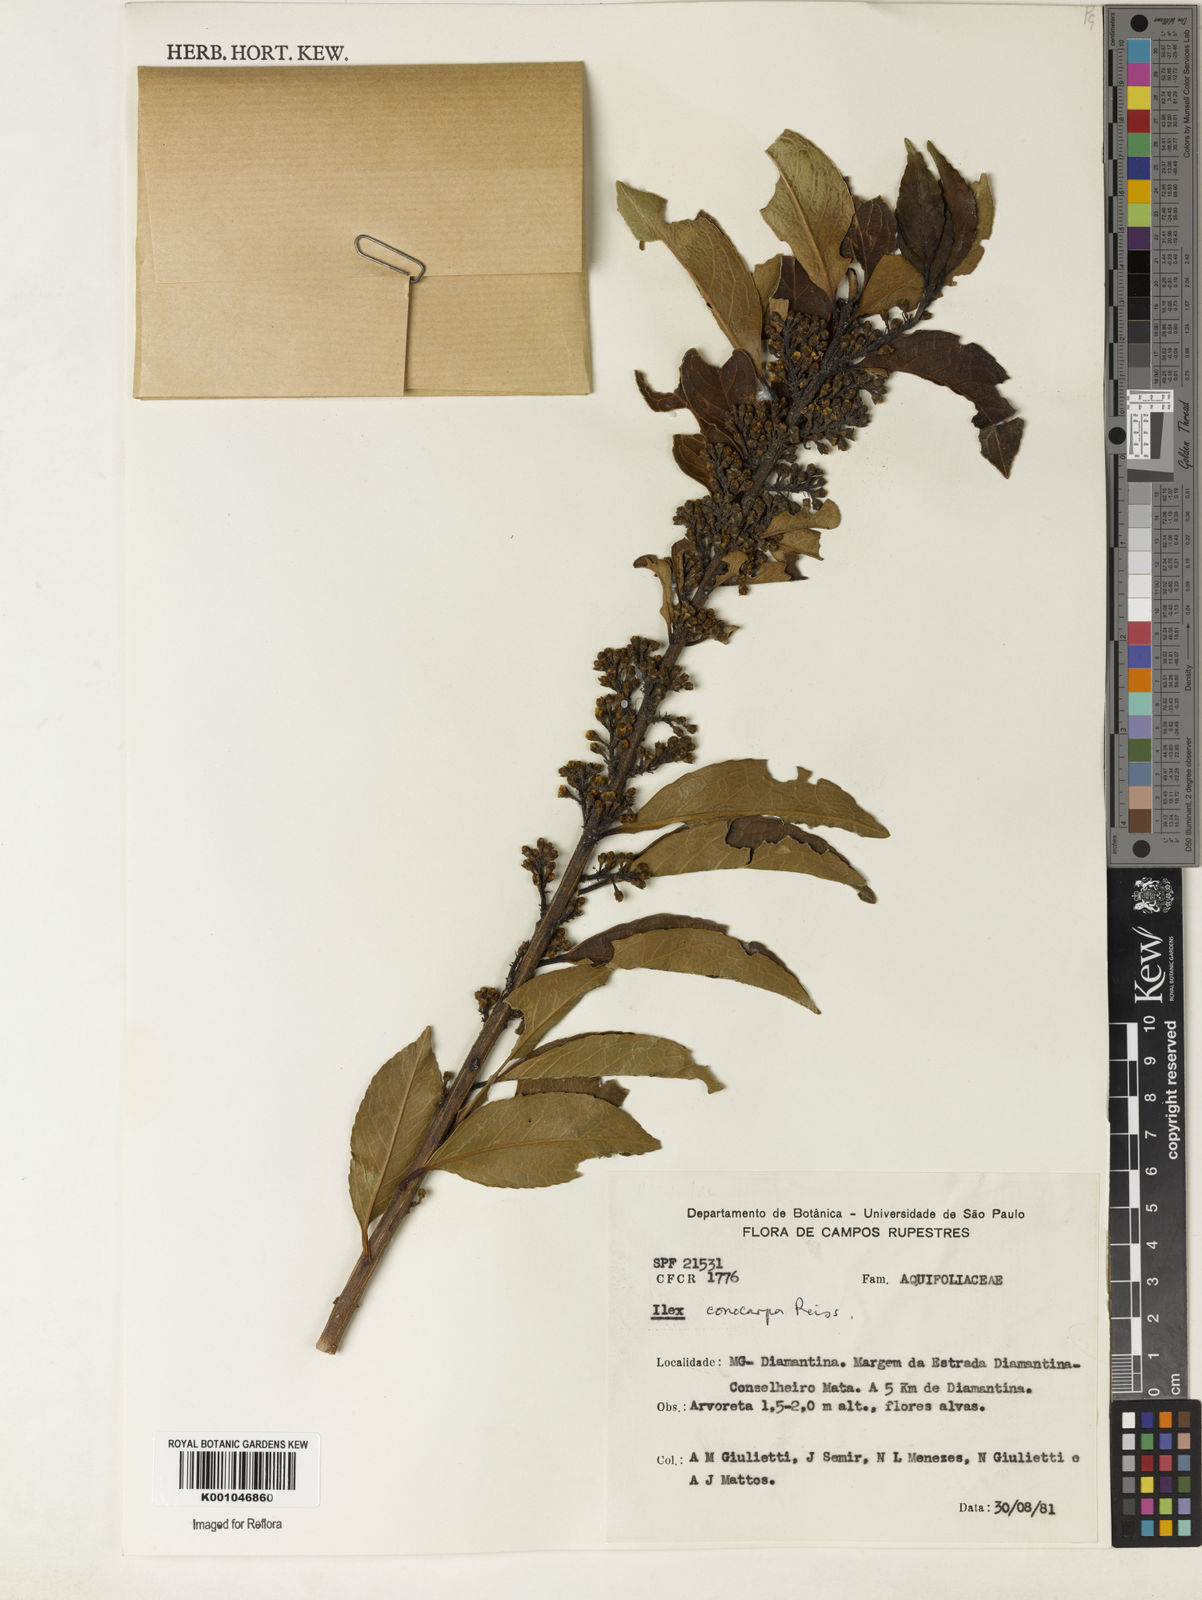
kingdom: Plantae
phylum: Tracheophyta
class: Magnoliopsida
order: Aquifoliales
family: Aquifoliaceae
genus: Ilex
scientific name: Ilex conocarpa
